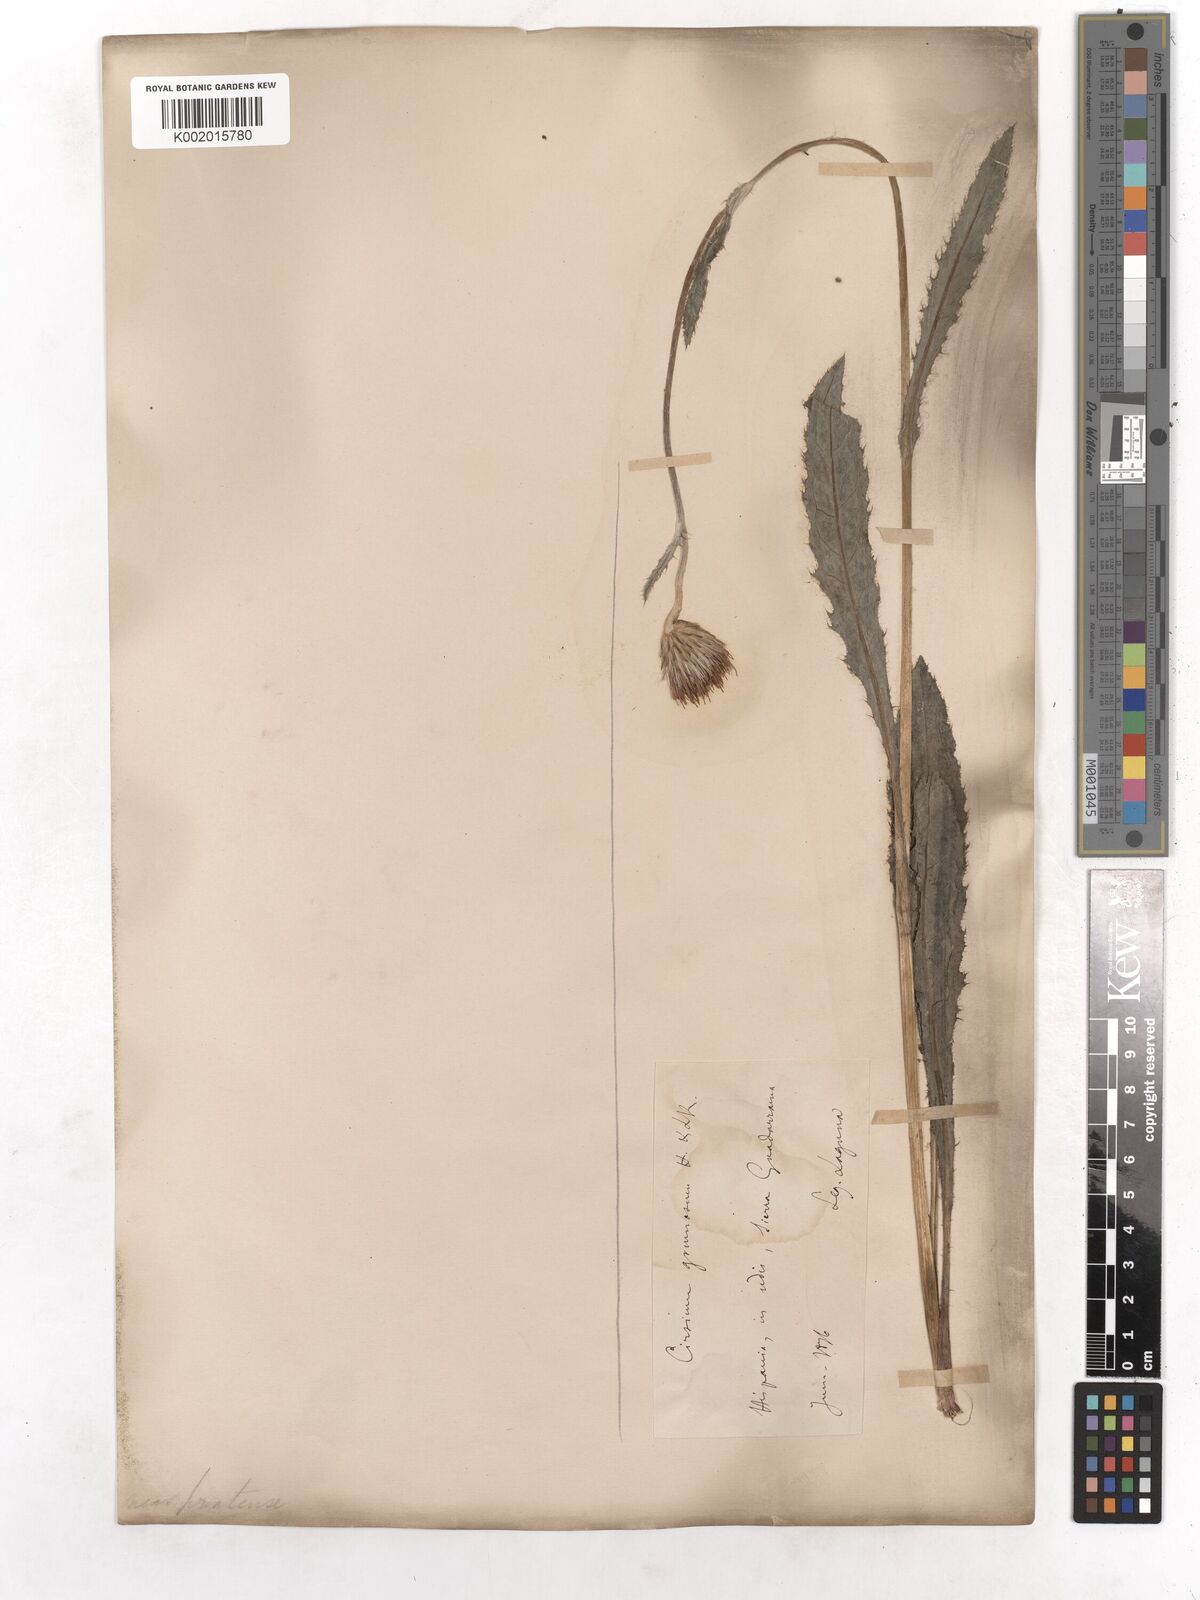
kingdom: Plantae
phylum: Tracheophyta
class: Magnoliopsida
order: Asterales
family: Asteraceae
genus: Cirsium
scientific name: Cirsium filipendulum
